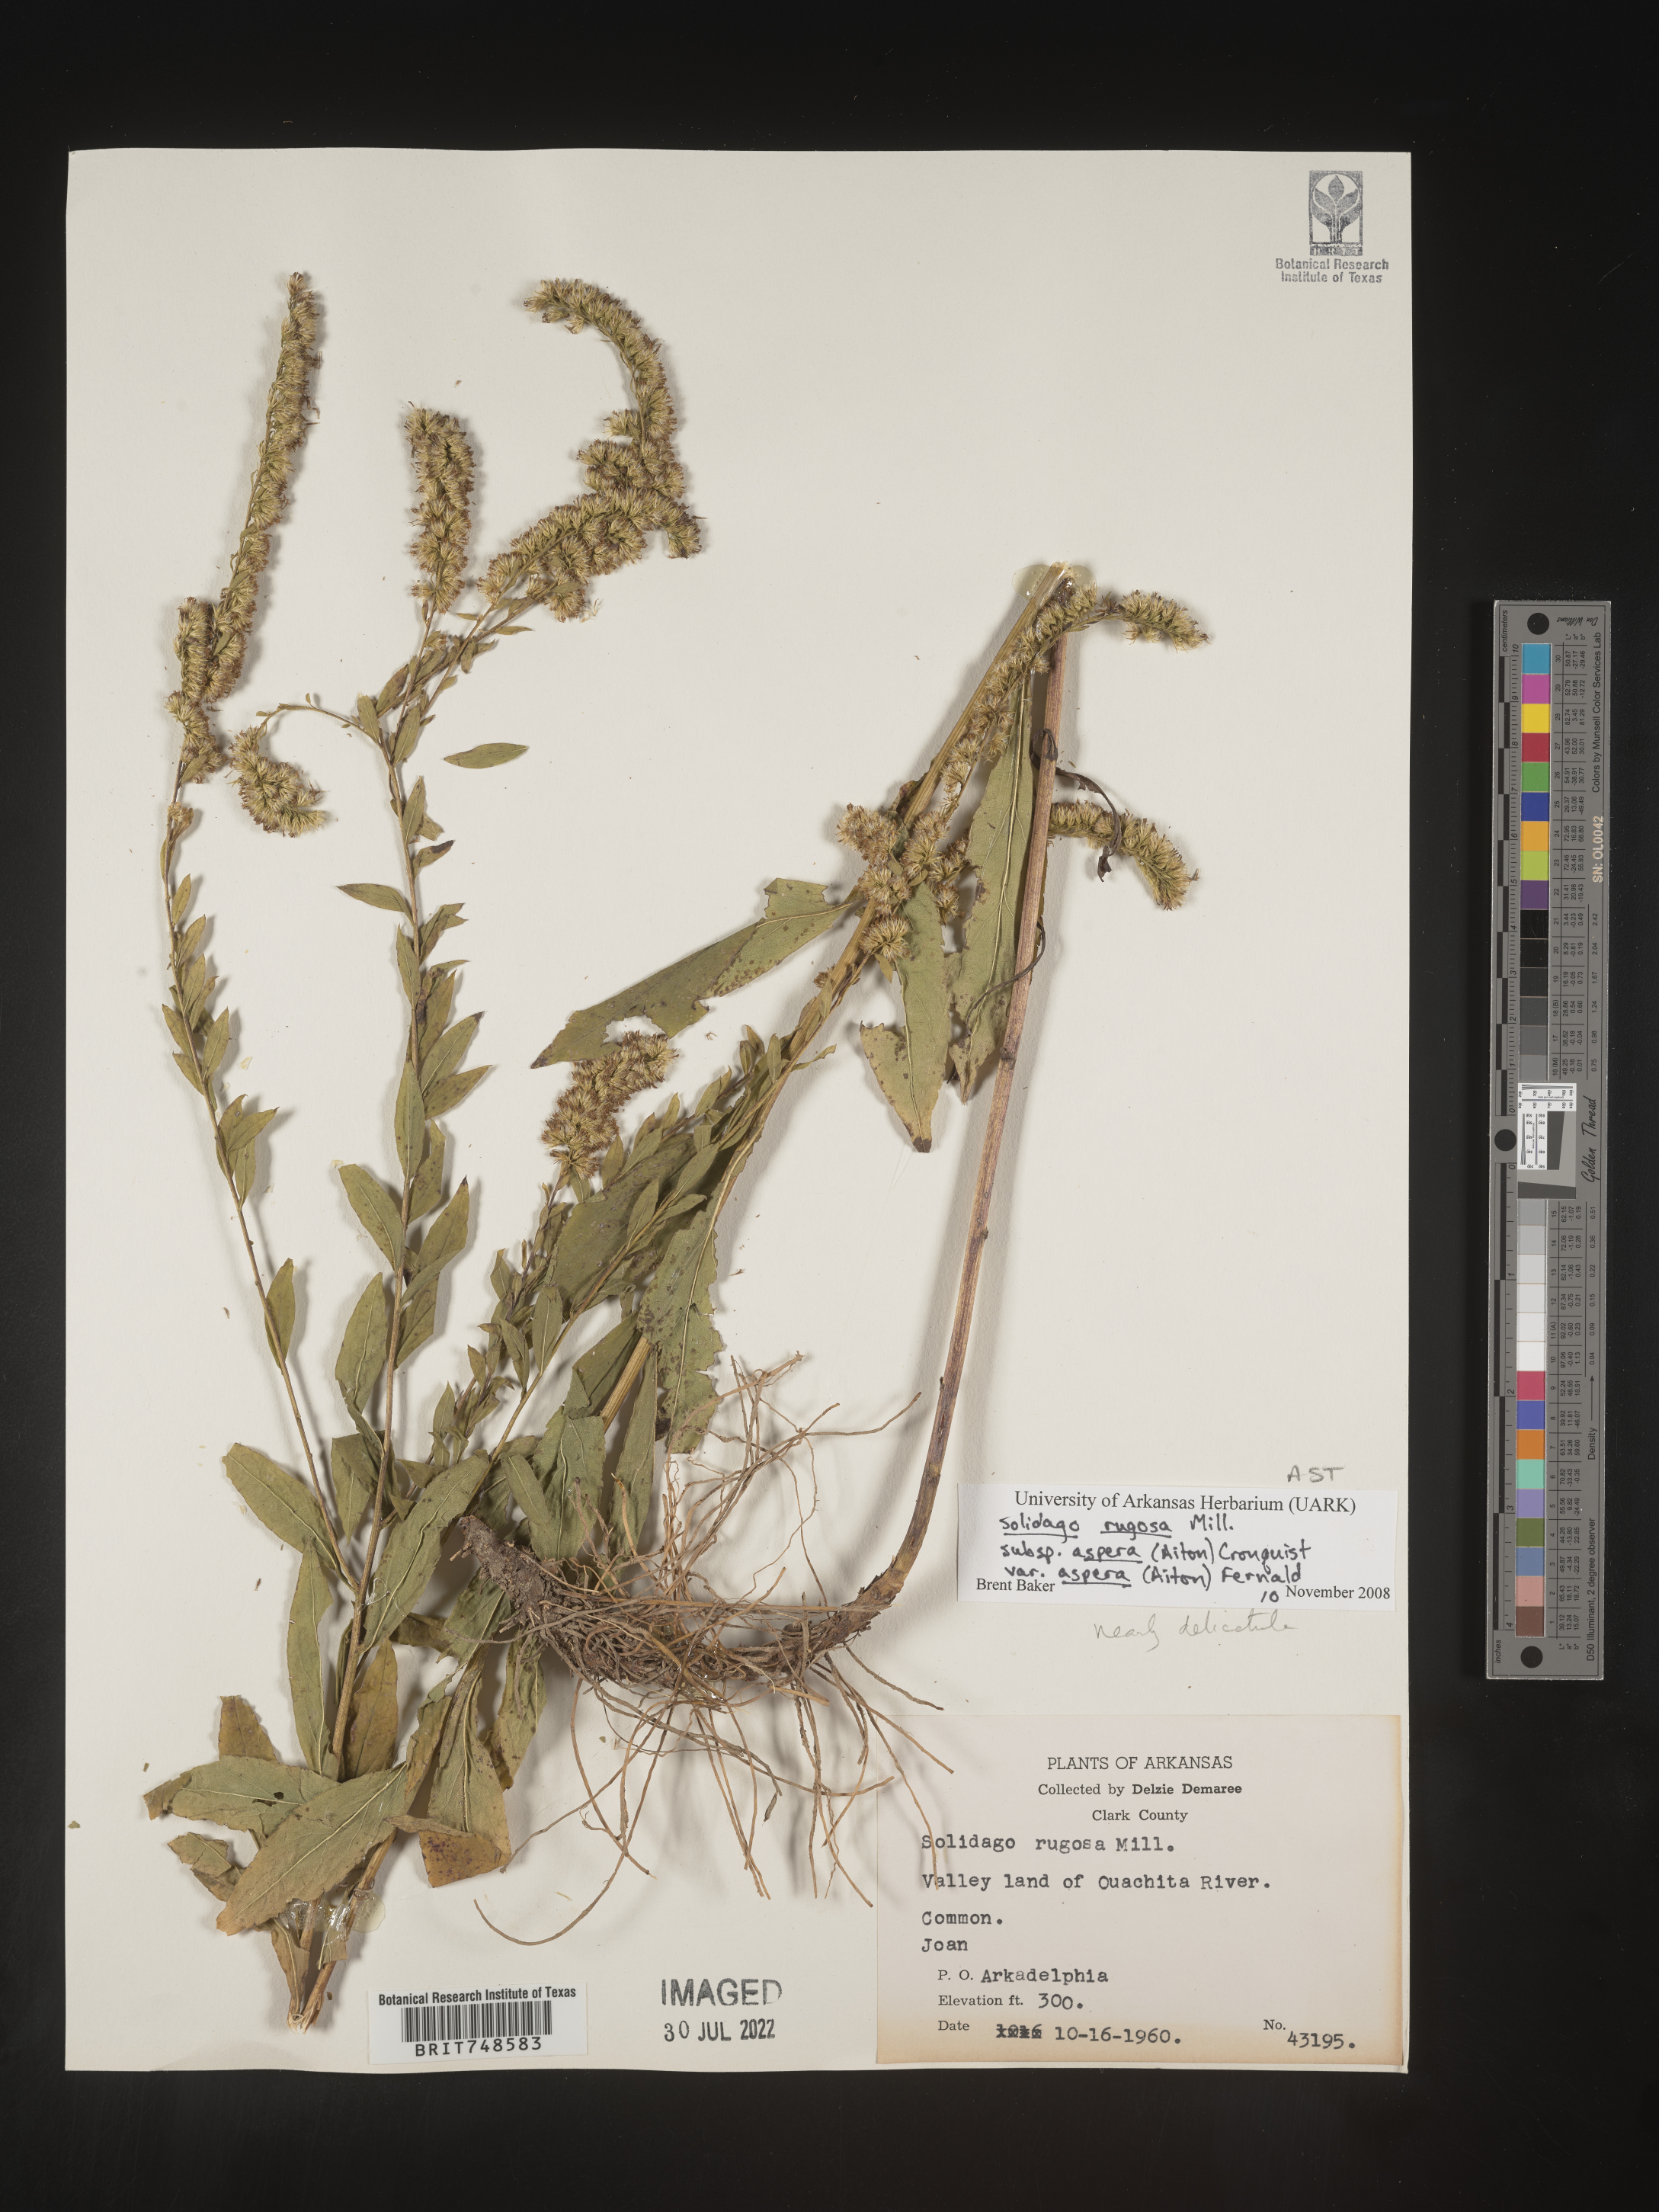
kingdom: Plantae
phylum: Tracheophyta
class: Magnoliopsida
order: Asterales
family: Asteraceae
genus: Solidago
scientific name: Solidago rugosa
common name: Rough-stemmed goldenrod
